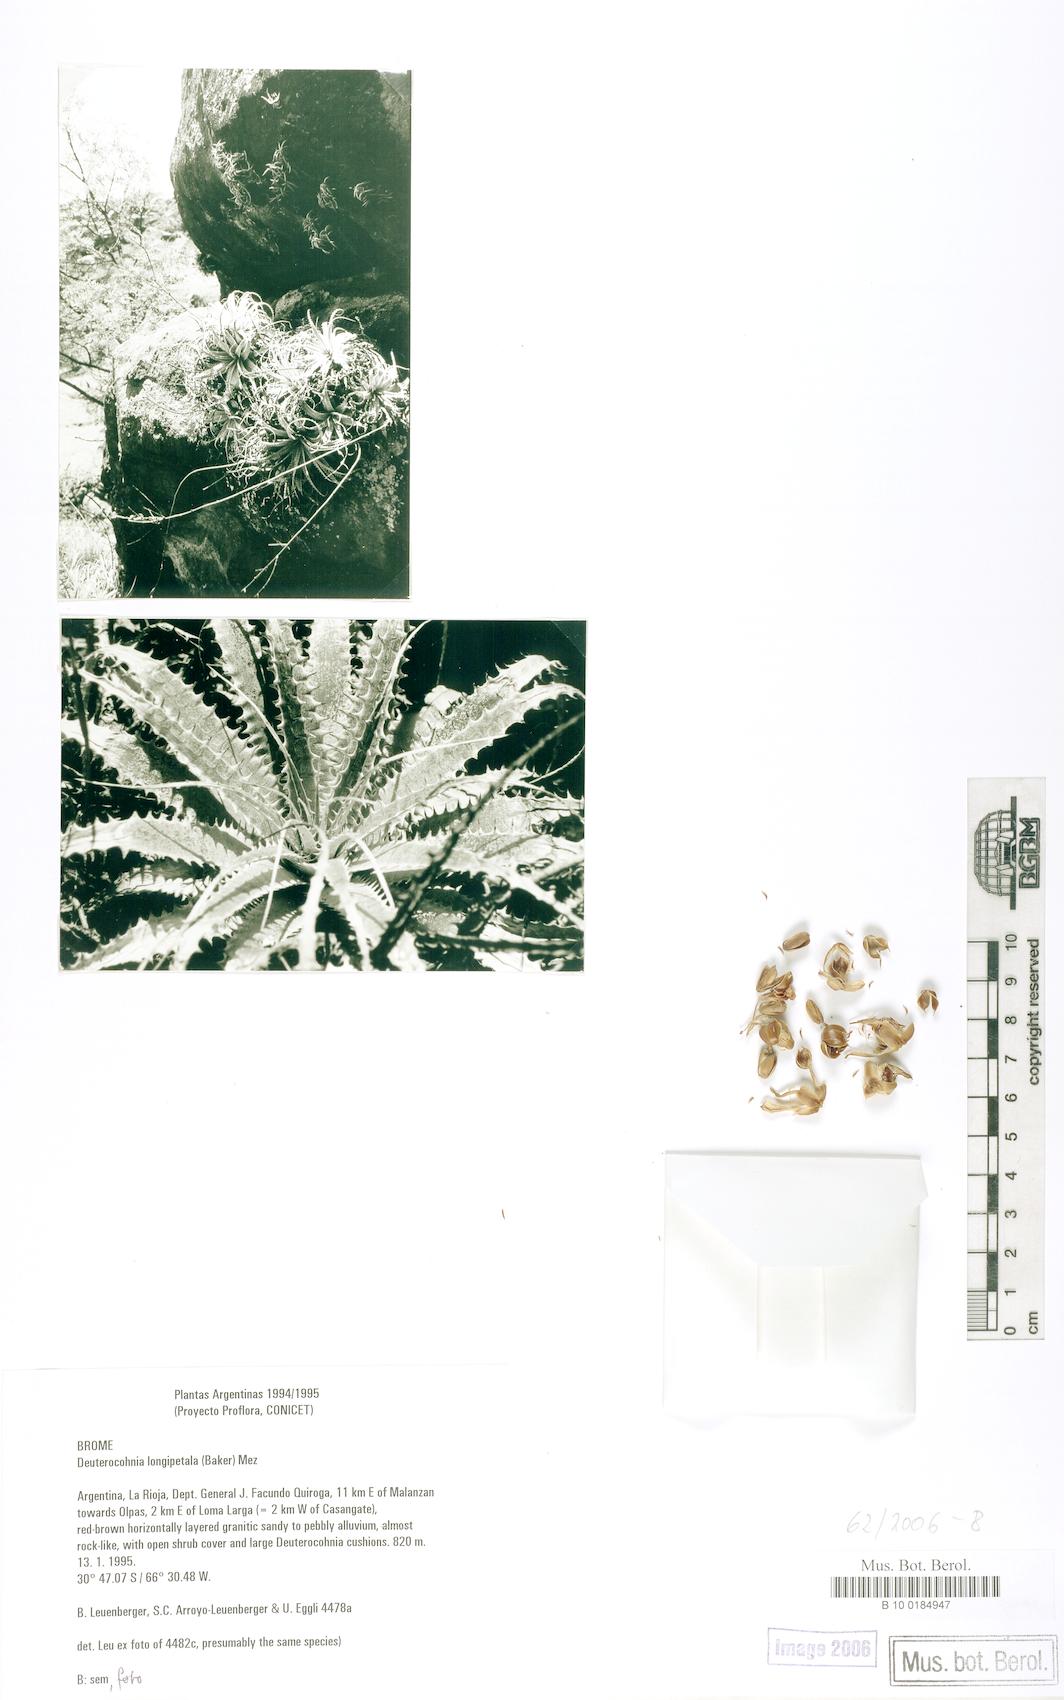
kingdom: Plantae
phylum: Tracheophyta
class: Liliopsida
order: Poales
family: Bromeliaceae
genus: Deuterocohnia
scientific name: Deuterocohnia longipetala
